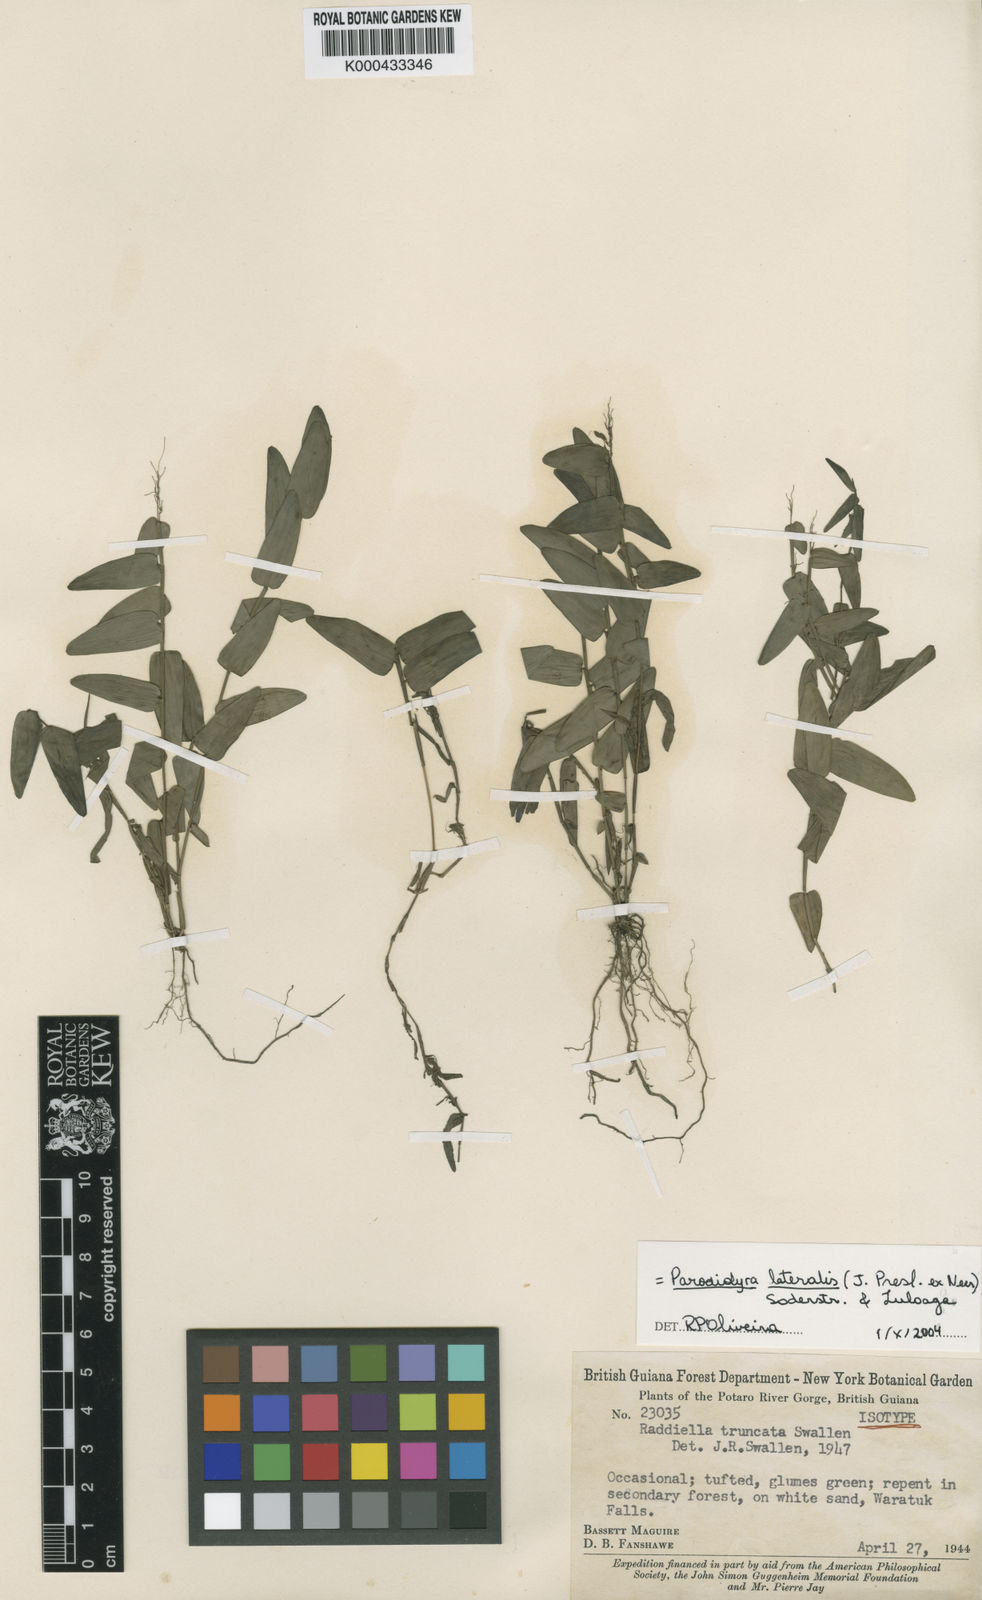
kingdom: Plantae
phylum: Tracheophyta
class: Liliopsida
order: Poales
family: Poaceae
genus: Parodiolyra
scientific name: Parodiolyra lateralis
